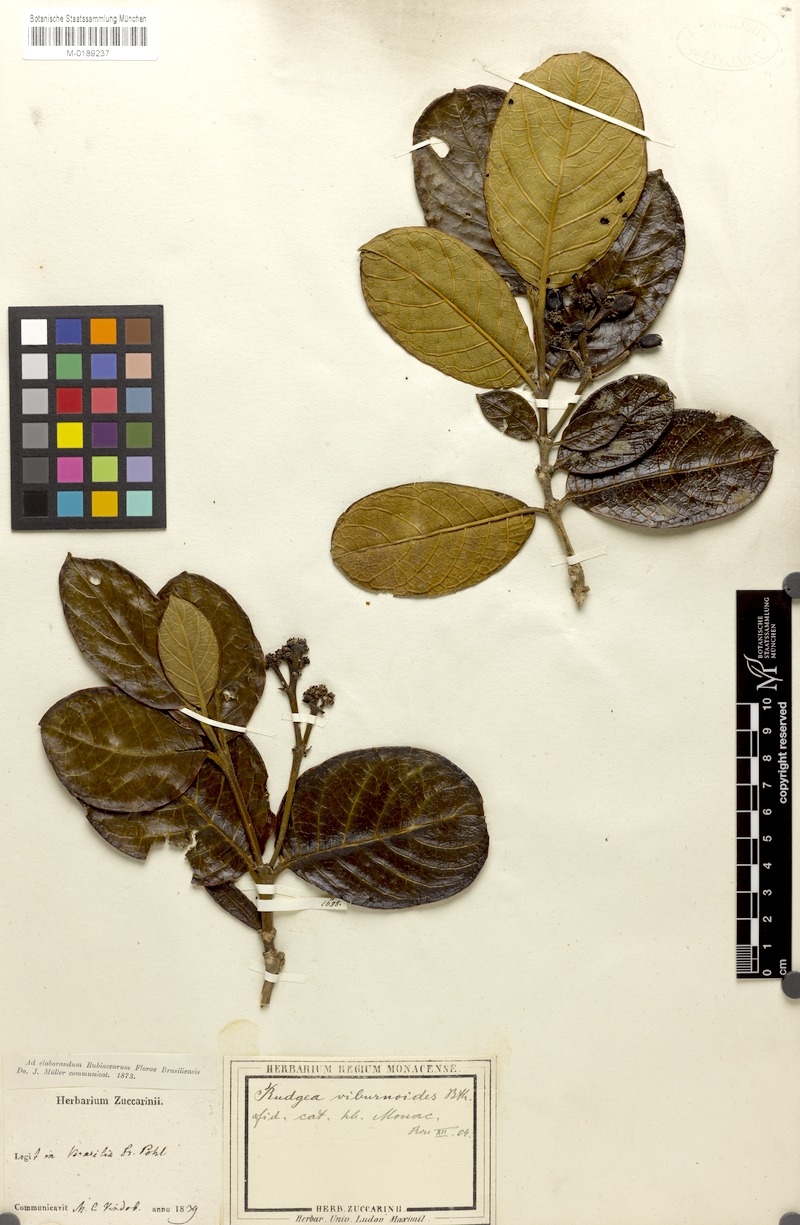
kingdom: Plantae
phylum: Tracheophyta
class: Magnoliopsida
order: Gentianales
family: Rubiaceae
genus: Rudgea
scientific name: Rudgea viburnoides
